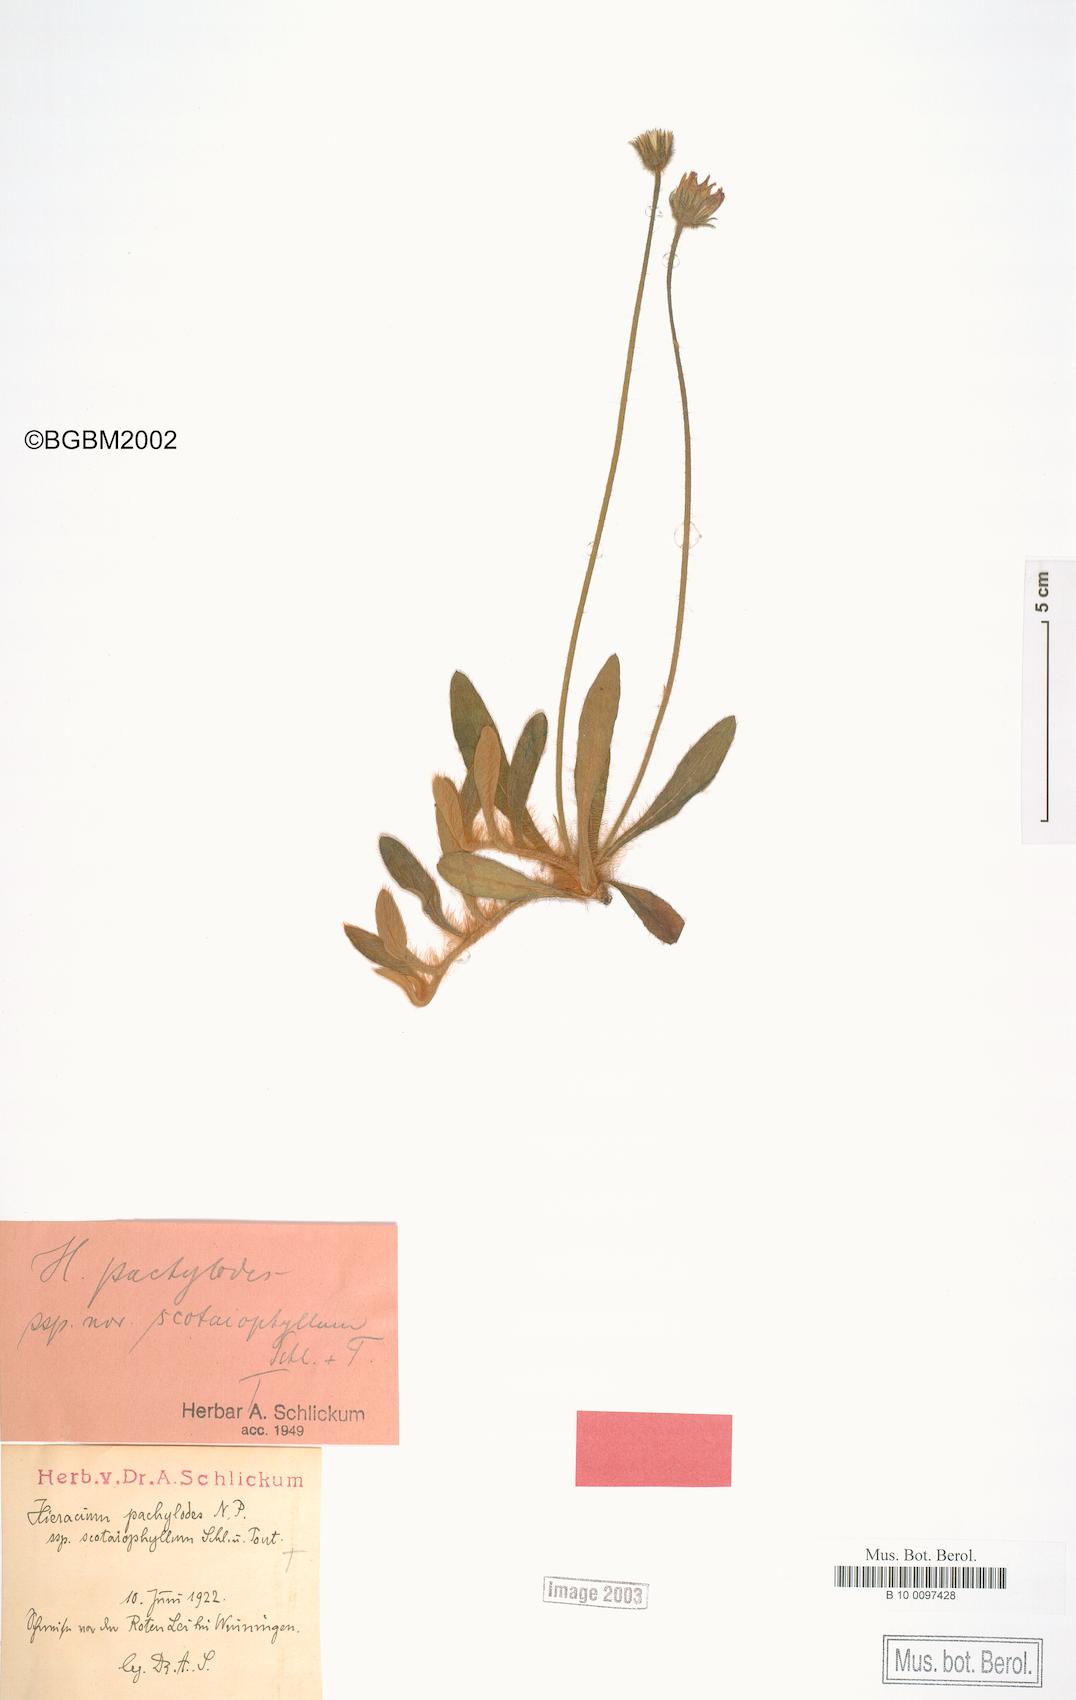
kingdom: Plantae
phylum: Tracheophyta
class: Magnoliopsida
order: Asterales
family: Asteraceae
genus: Pilosella
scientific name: Pilosella longisquama
